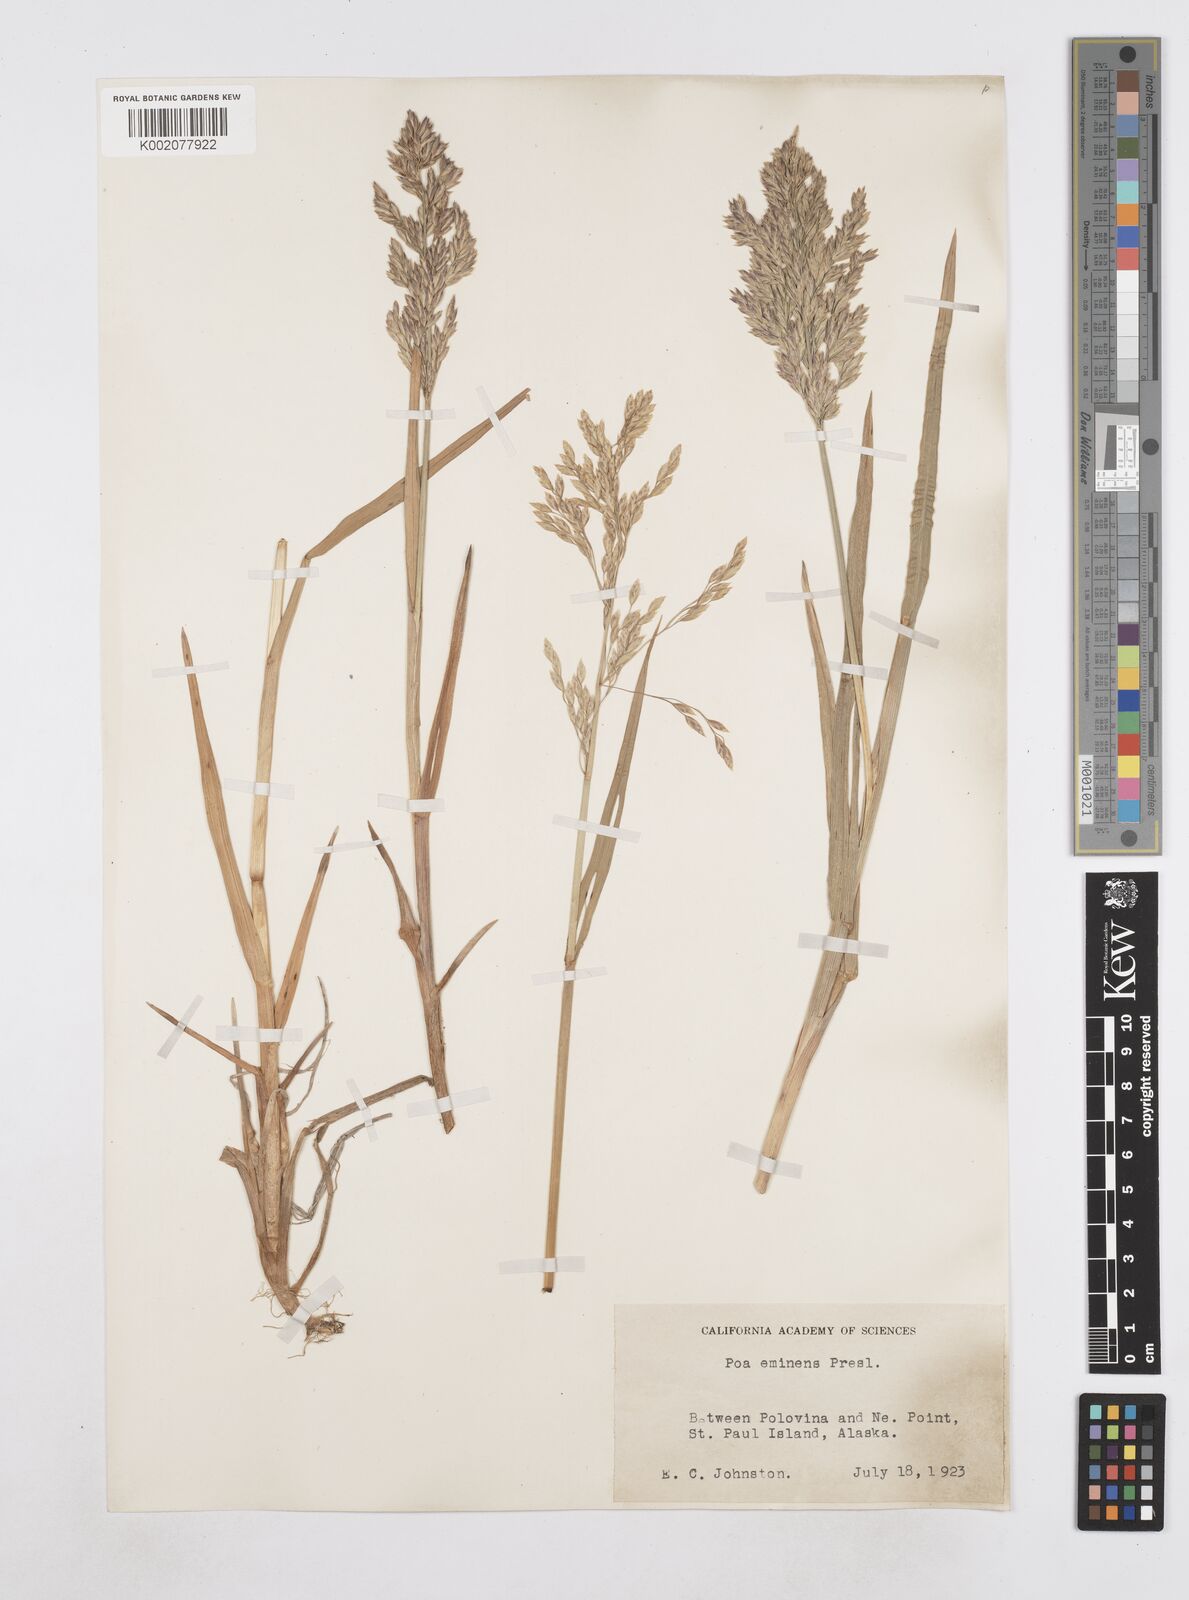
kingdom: Plantae
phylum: Tracheophyta
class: Liliopsida
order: Poales
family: Poaceae
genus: Arctopoa
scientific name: Arctopoa eminens
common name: Eminent bluegrass
